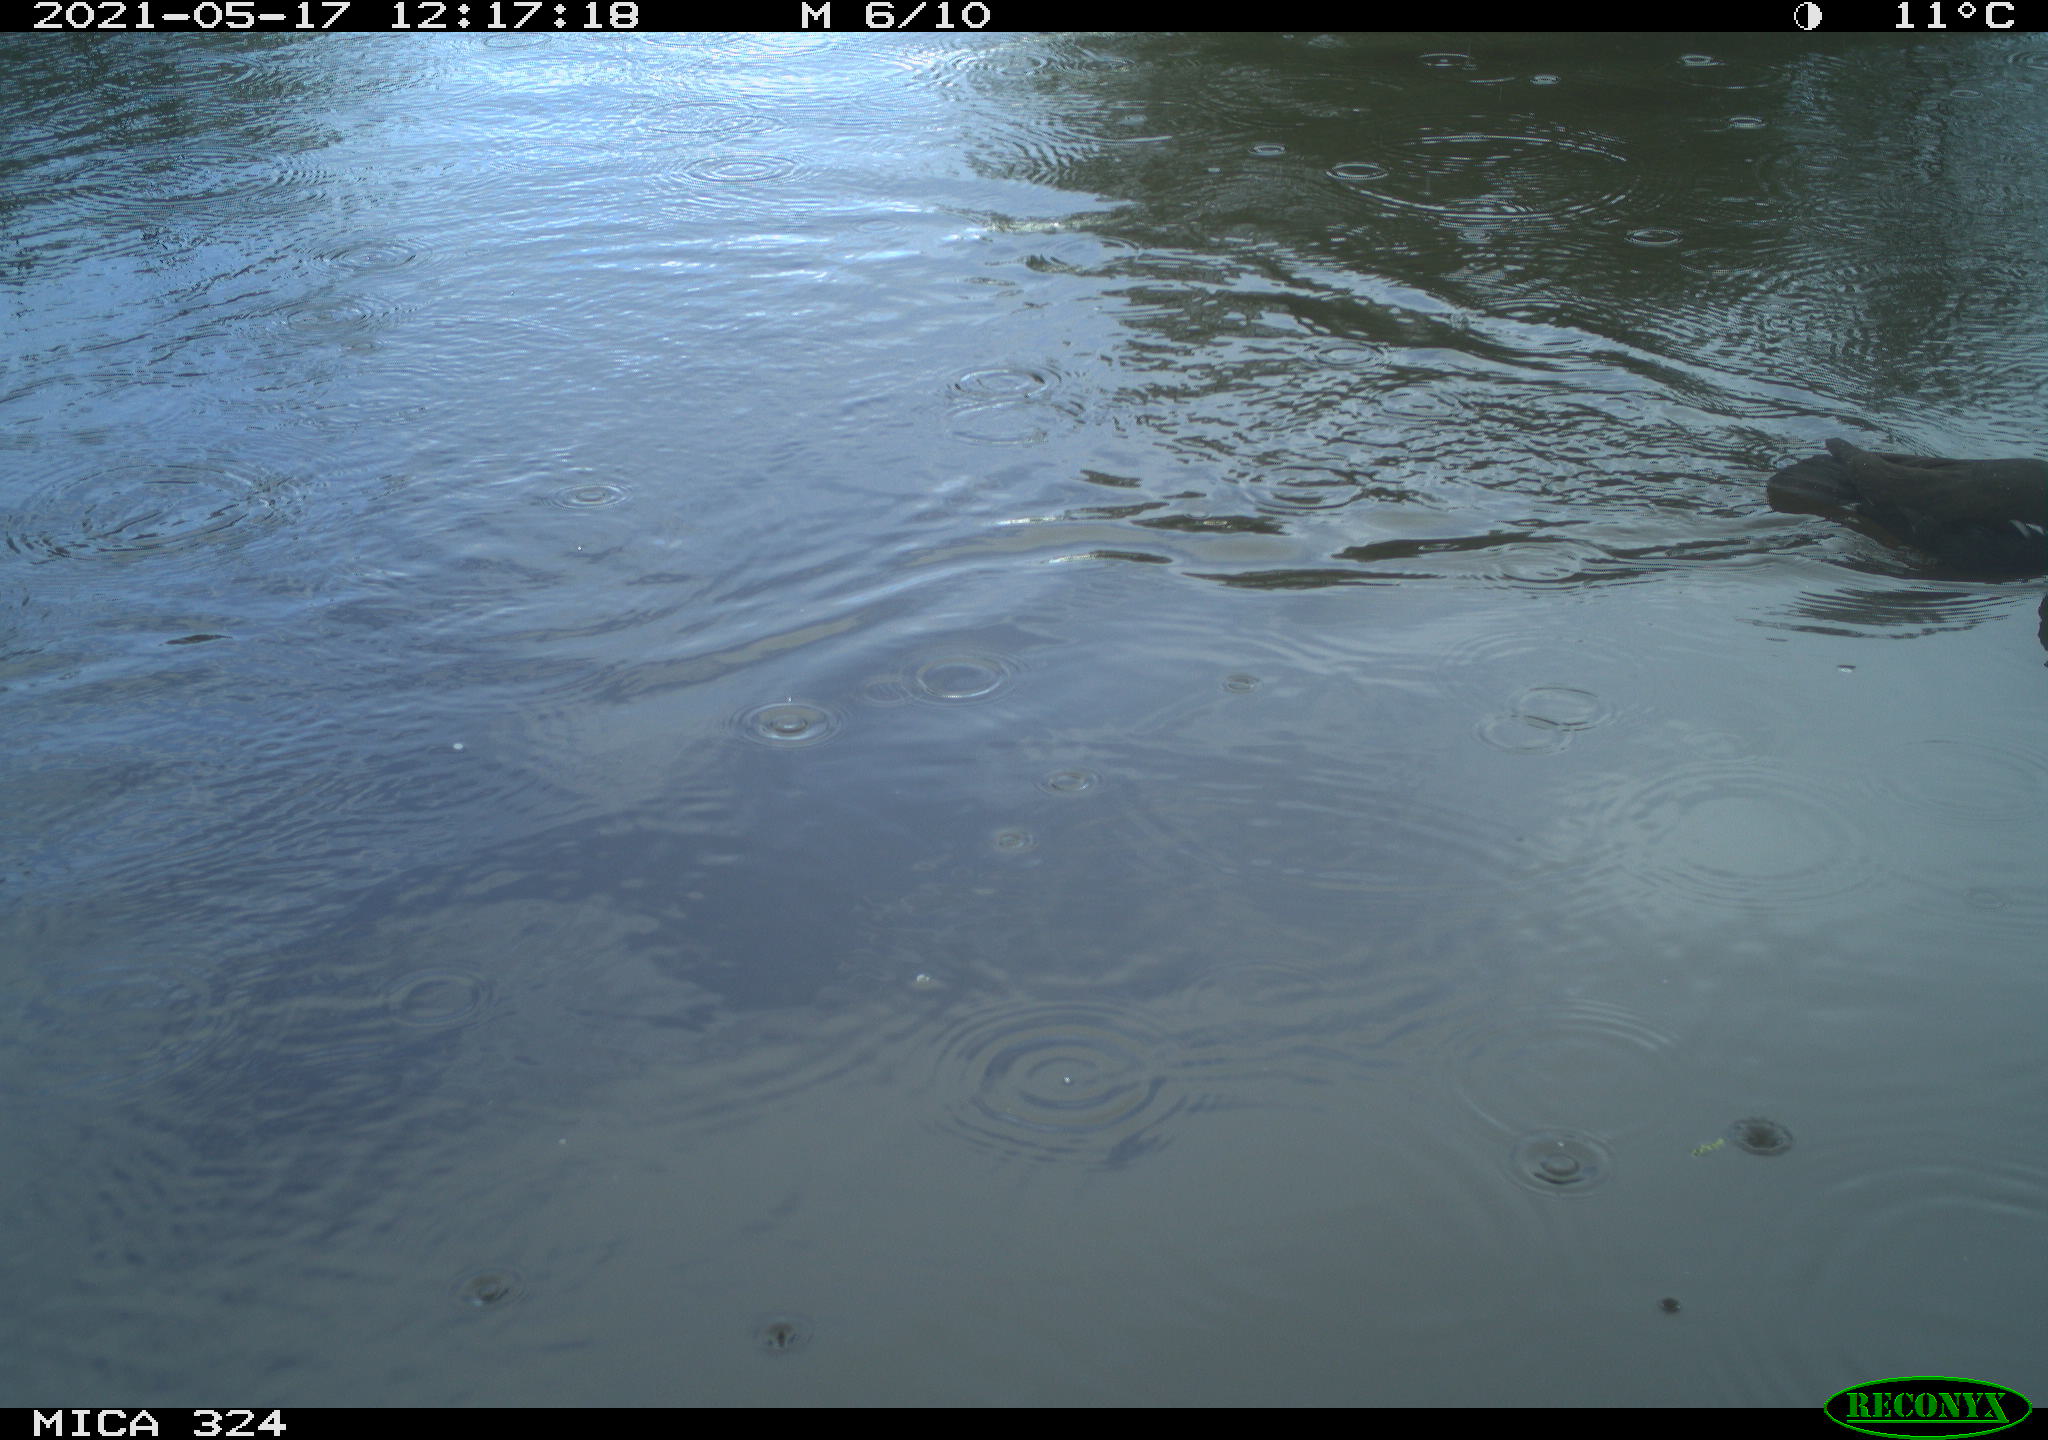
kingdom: Animalia
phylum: Chordata
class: Aves
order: Gruiformes
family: Rallidae
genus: Gallinula
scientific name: Gallinula chloropus
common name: Common moorhen
